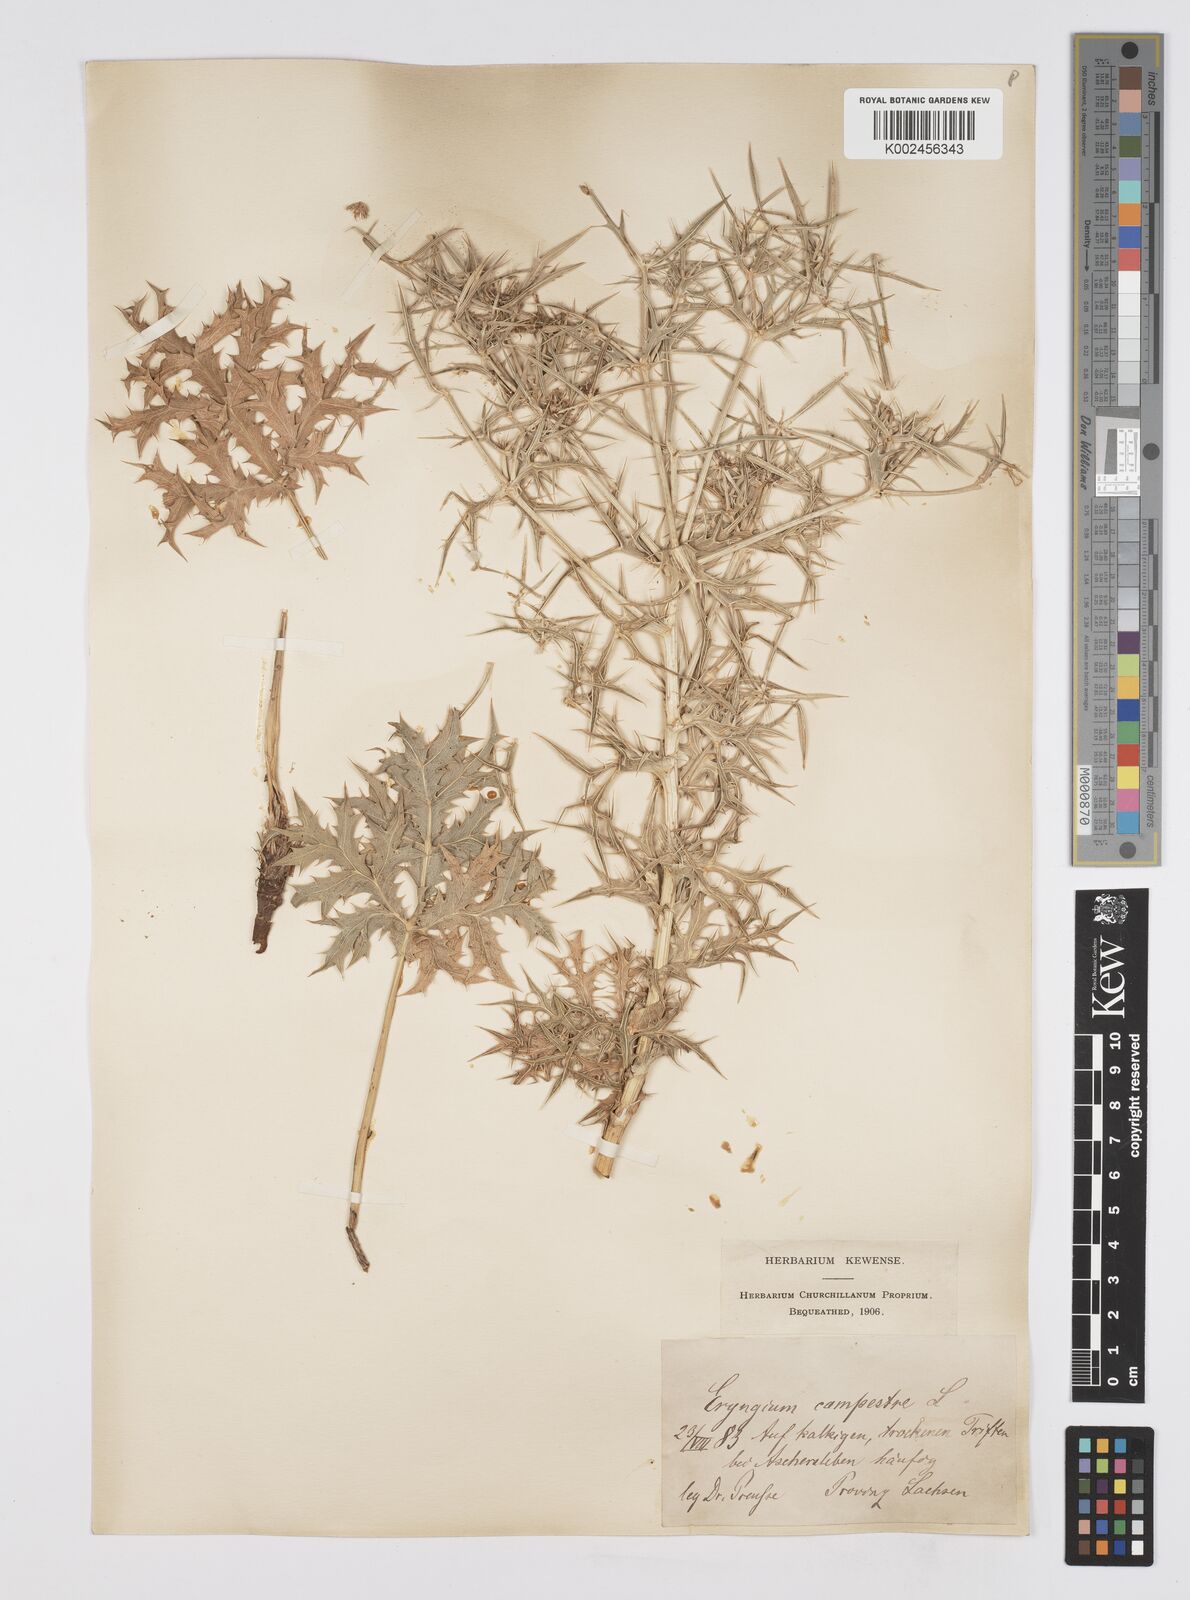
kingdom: Plantae
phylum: Tracheophyta
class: Magnoliopsida
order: Apiales
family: Apiaceae
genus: Eryngium
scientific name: Eryngium campestre
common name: Field eryngo
